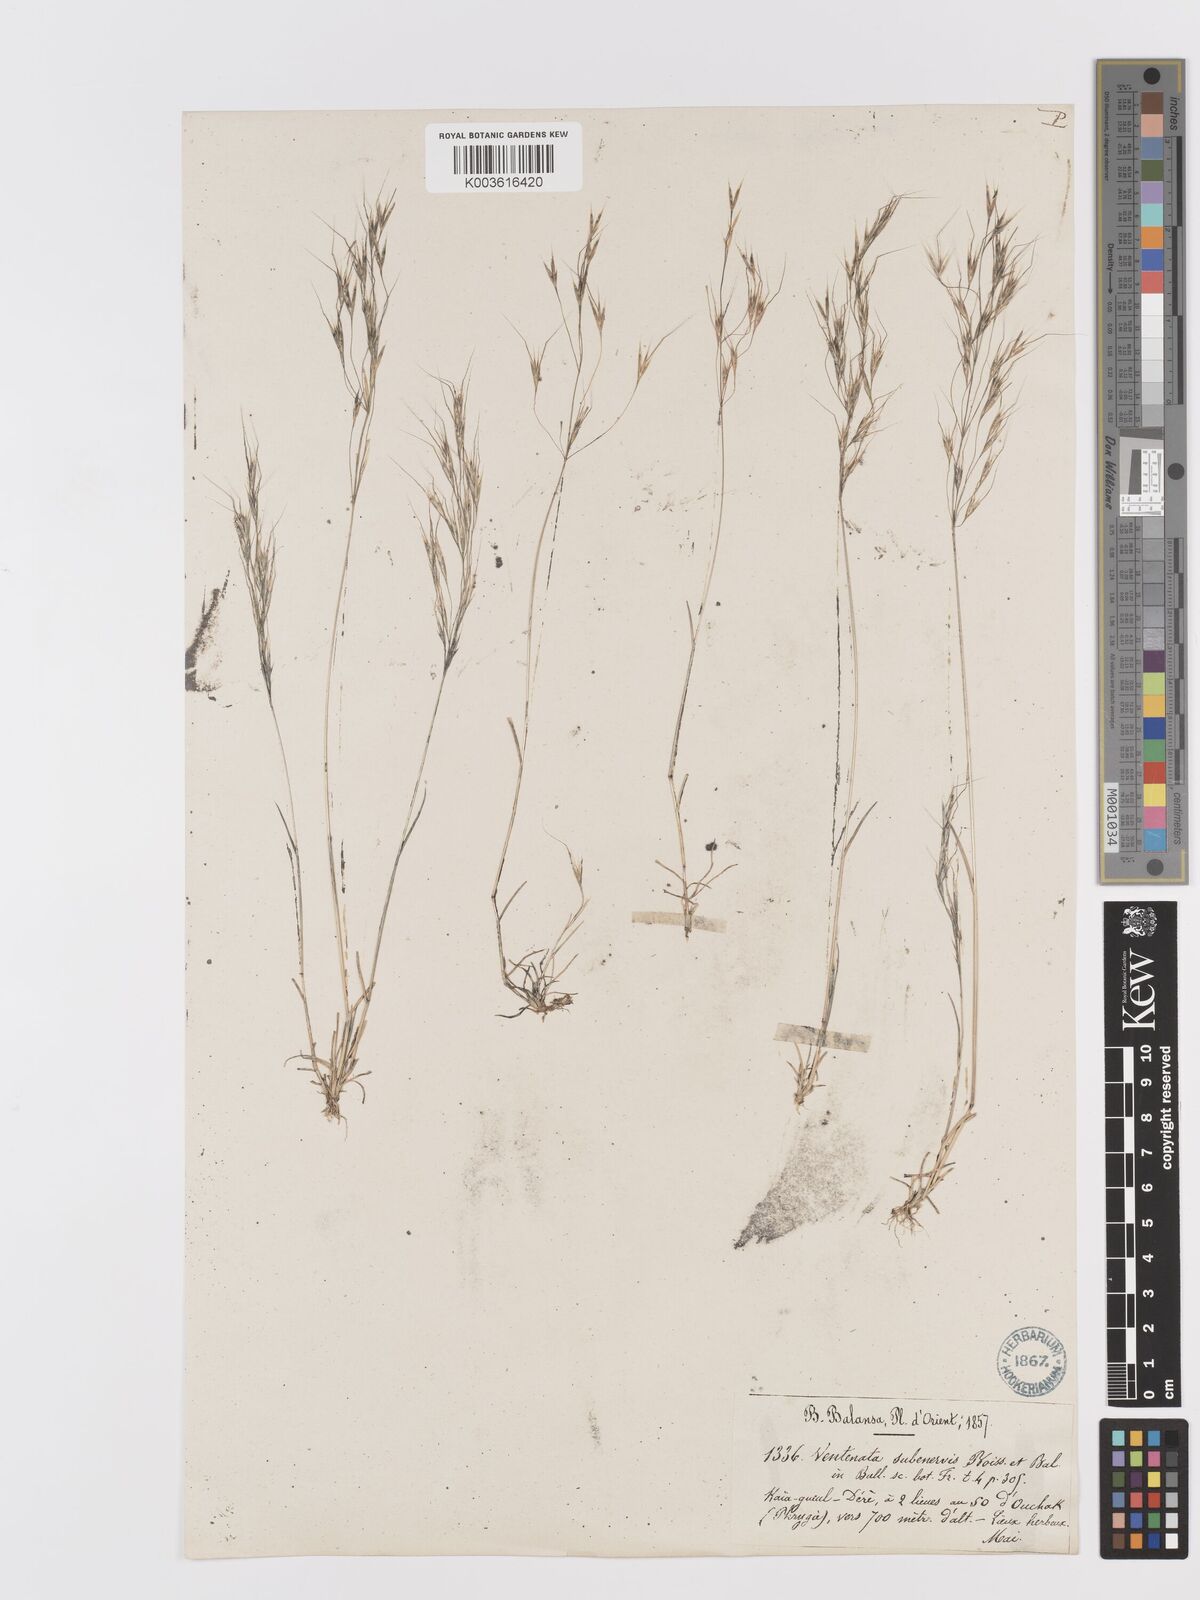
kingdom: Plantae
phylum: Tracheophyta
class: Liliopsida
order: Poales
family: Poaceae
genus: Ventenata
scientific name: Ventenata subenervis
